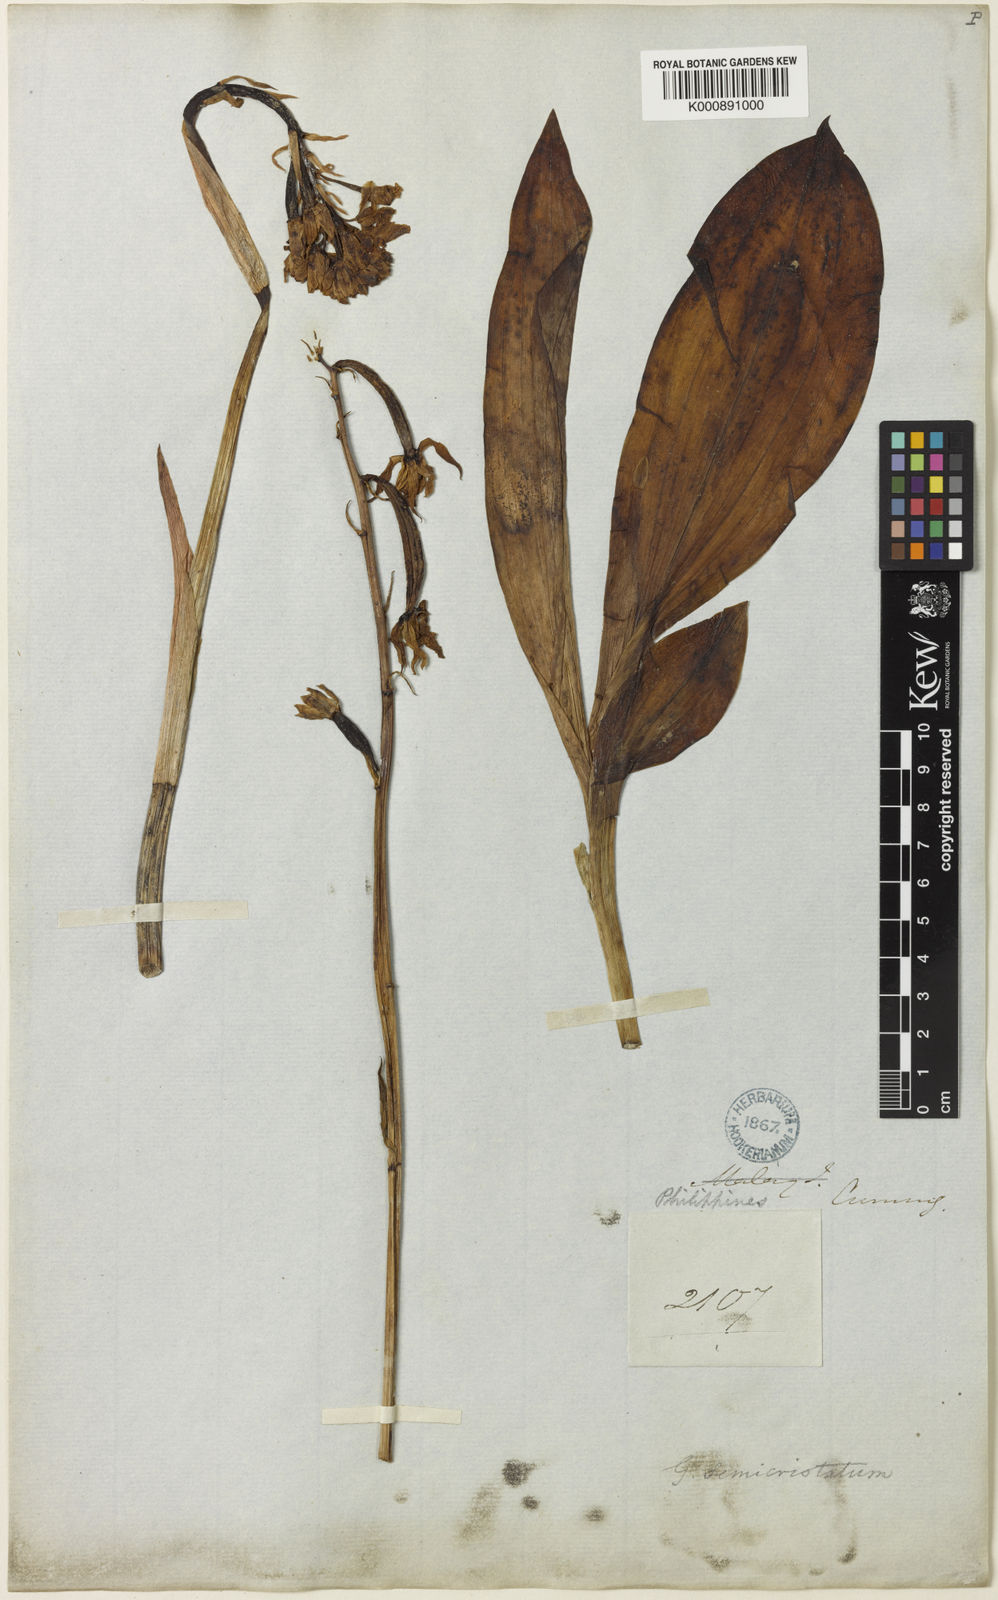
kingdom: Plantae
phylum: Tracheophyta
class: Liliopsida
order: Asparagales
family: Orchidaceae
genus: Eulophia
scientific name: Eulophia cernua
